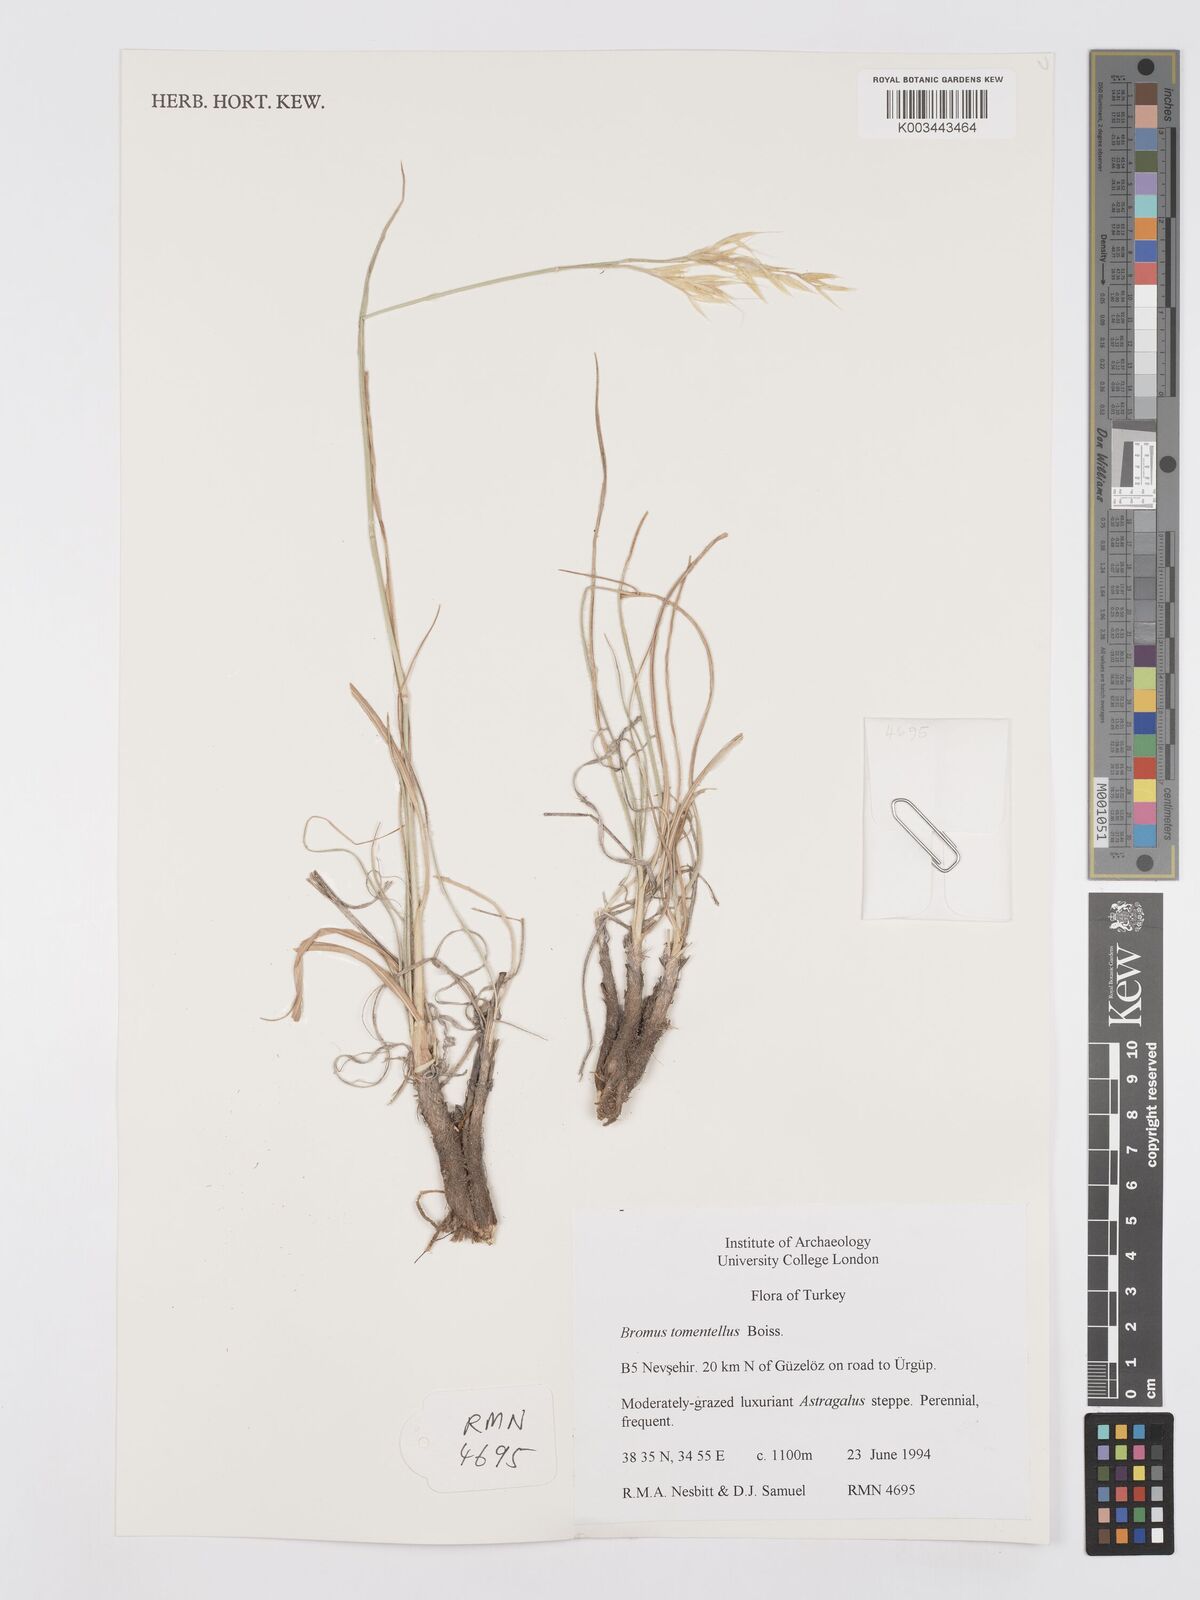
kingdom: Plantae
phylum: Tracheophyta
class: Liliopsida
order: Poales
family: Poaceae
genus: Bromus
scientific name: Bromus tomentellus
